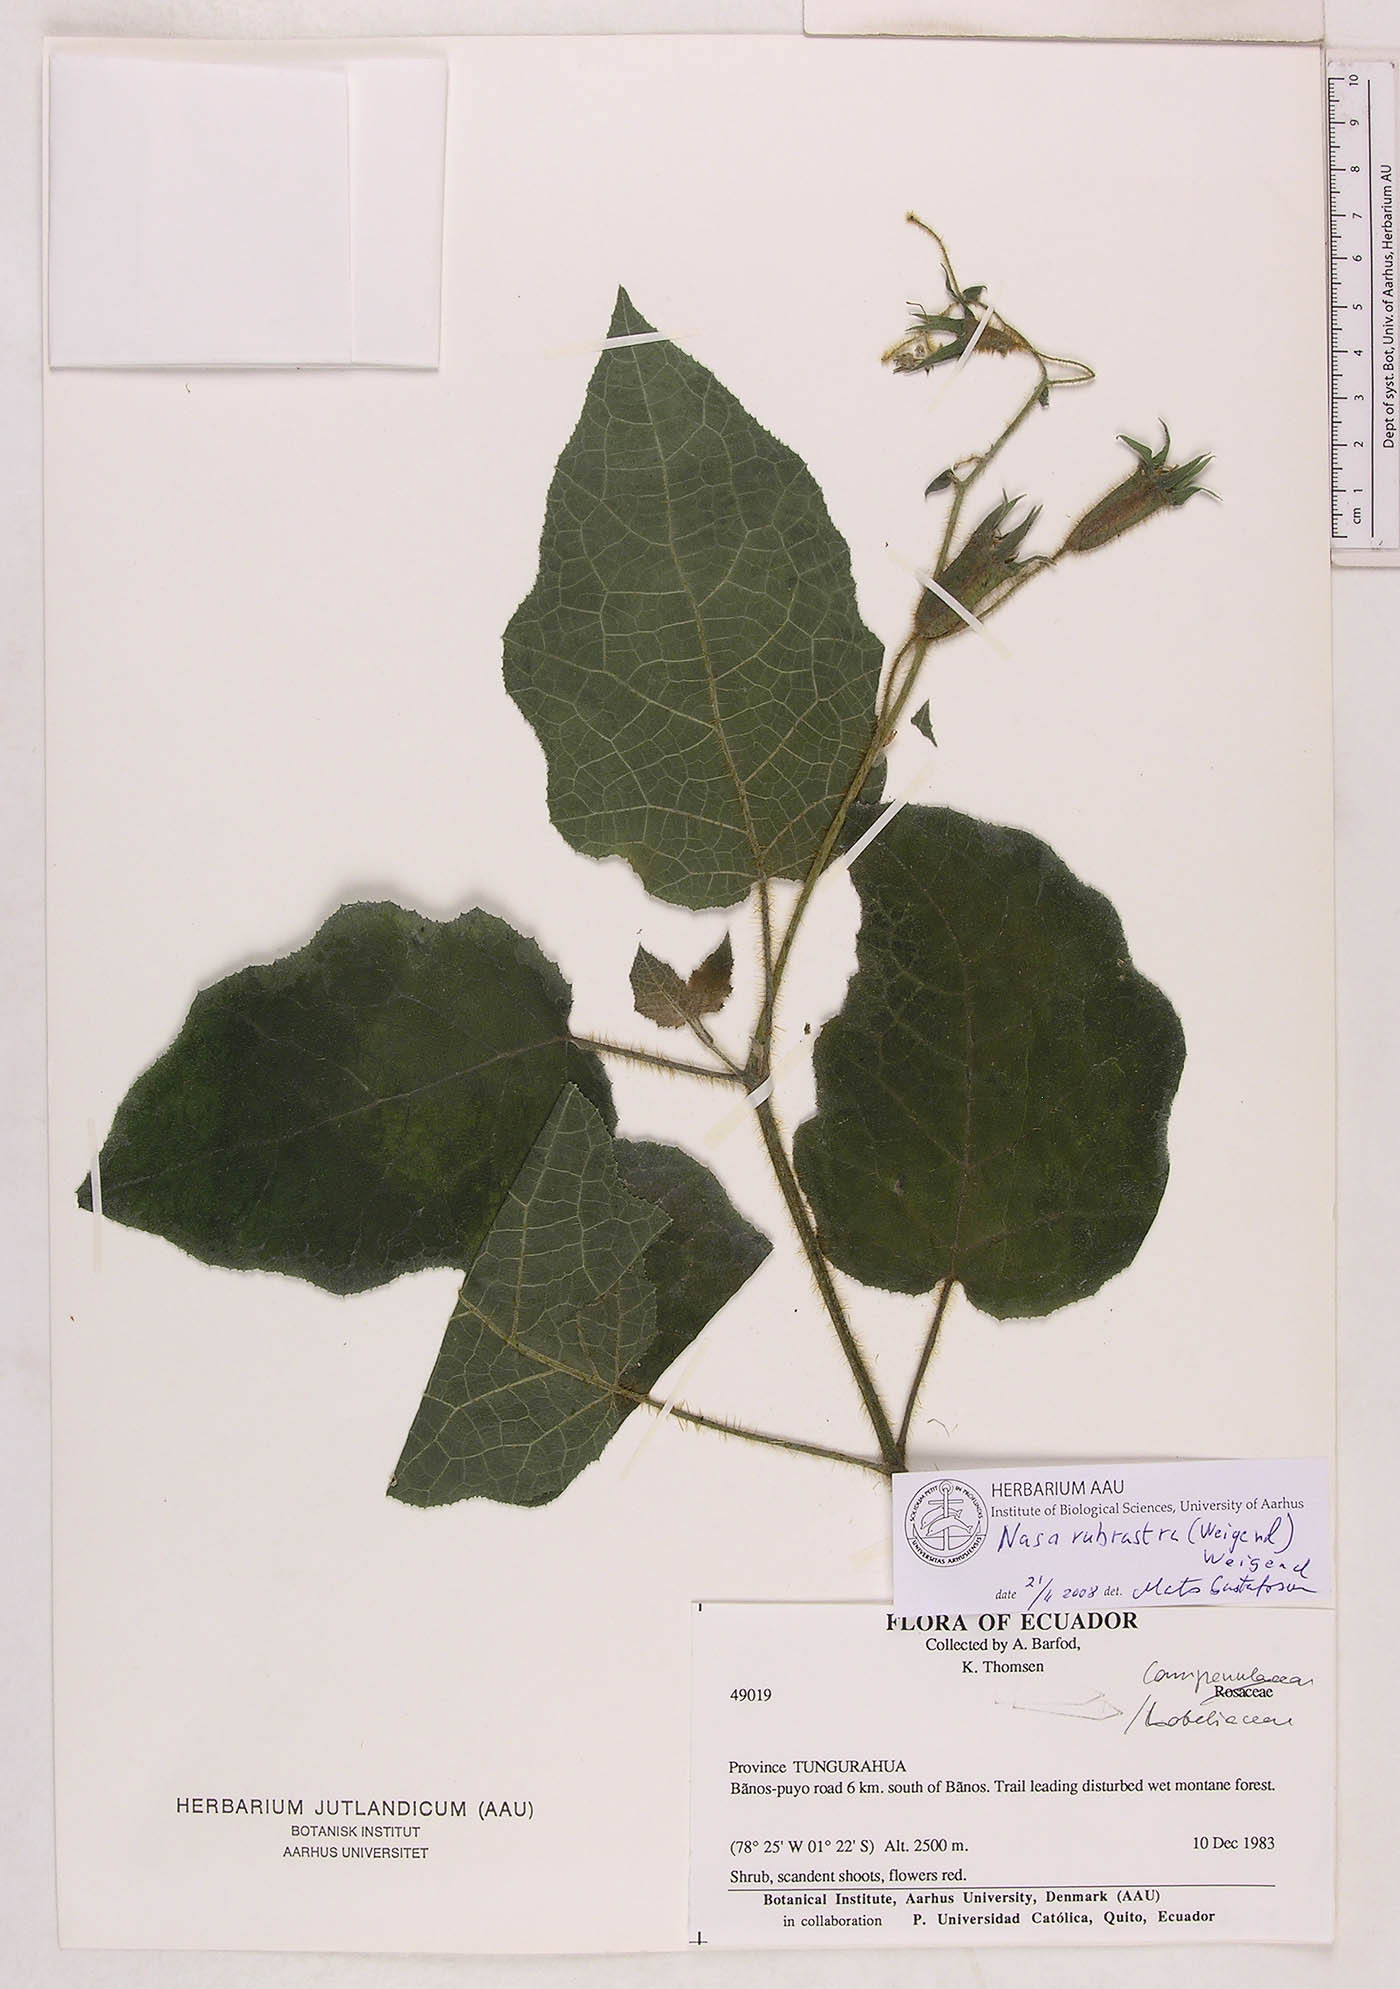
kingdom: Plantae
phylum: Tracheophyta
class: Magnoliopsida
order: Cornales
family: Loasaceae
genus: Nasa
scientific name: Nasa rubrastra
